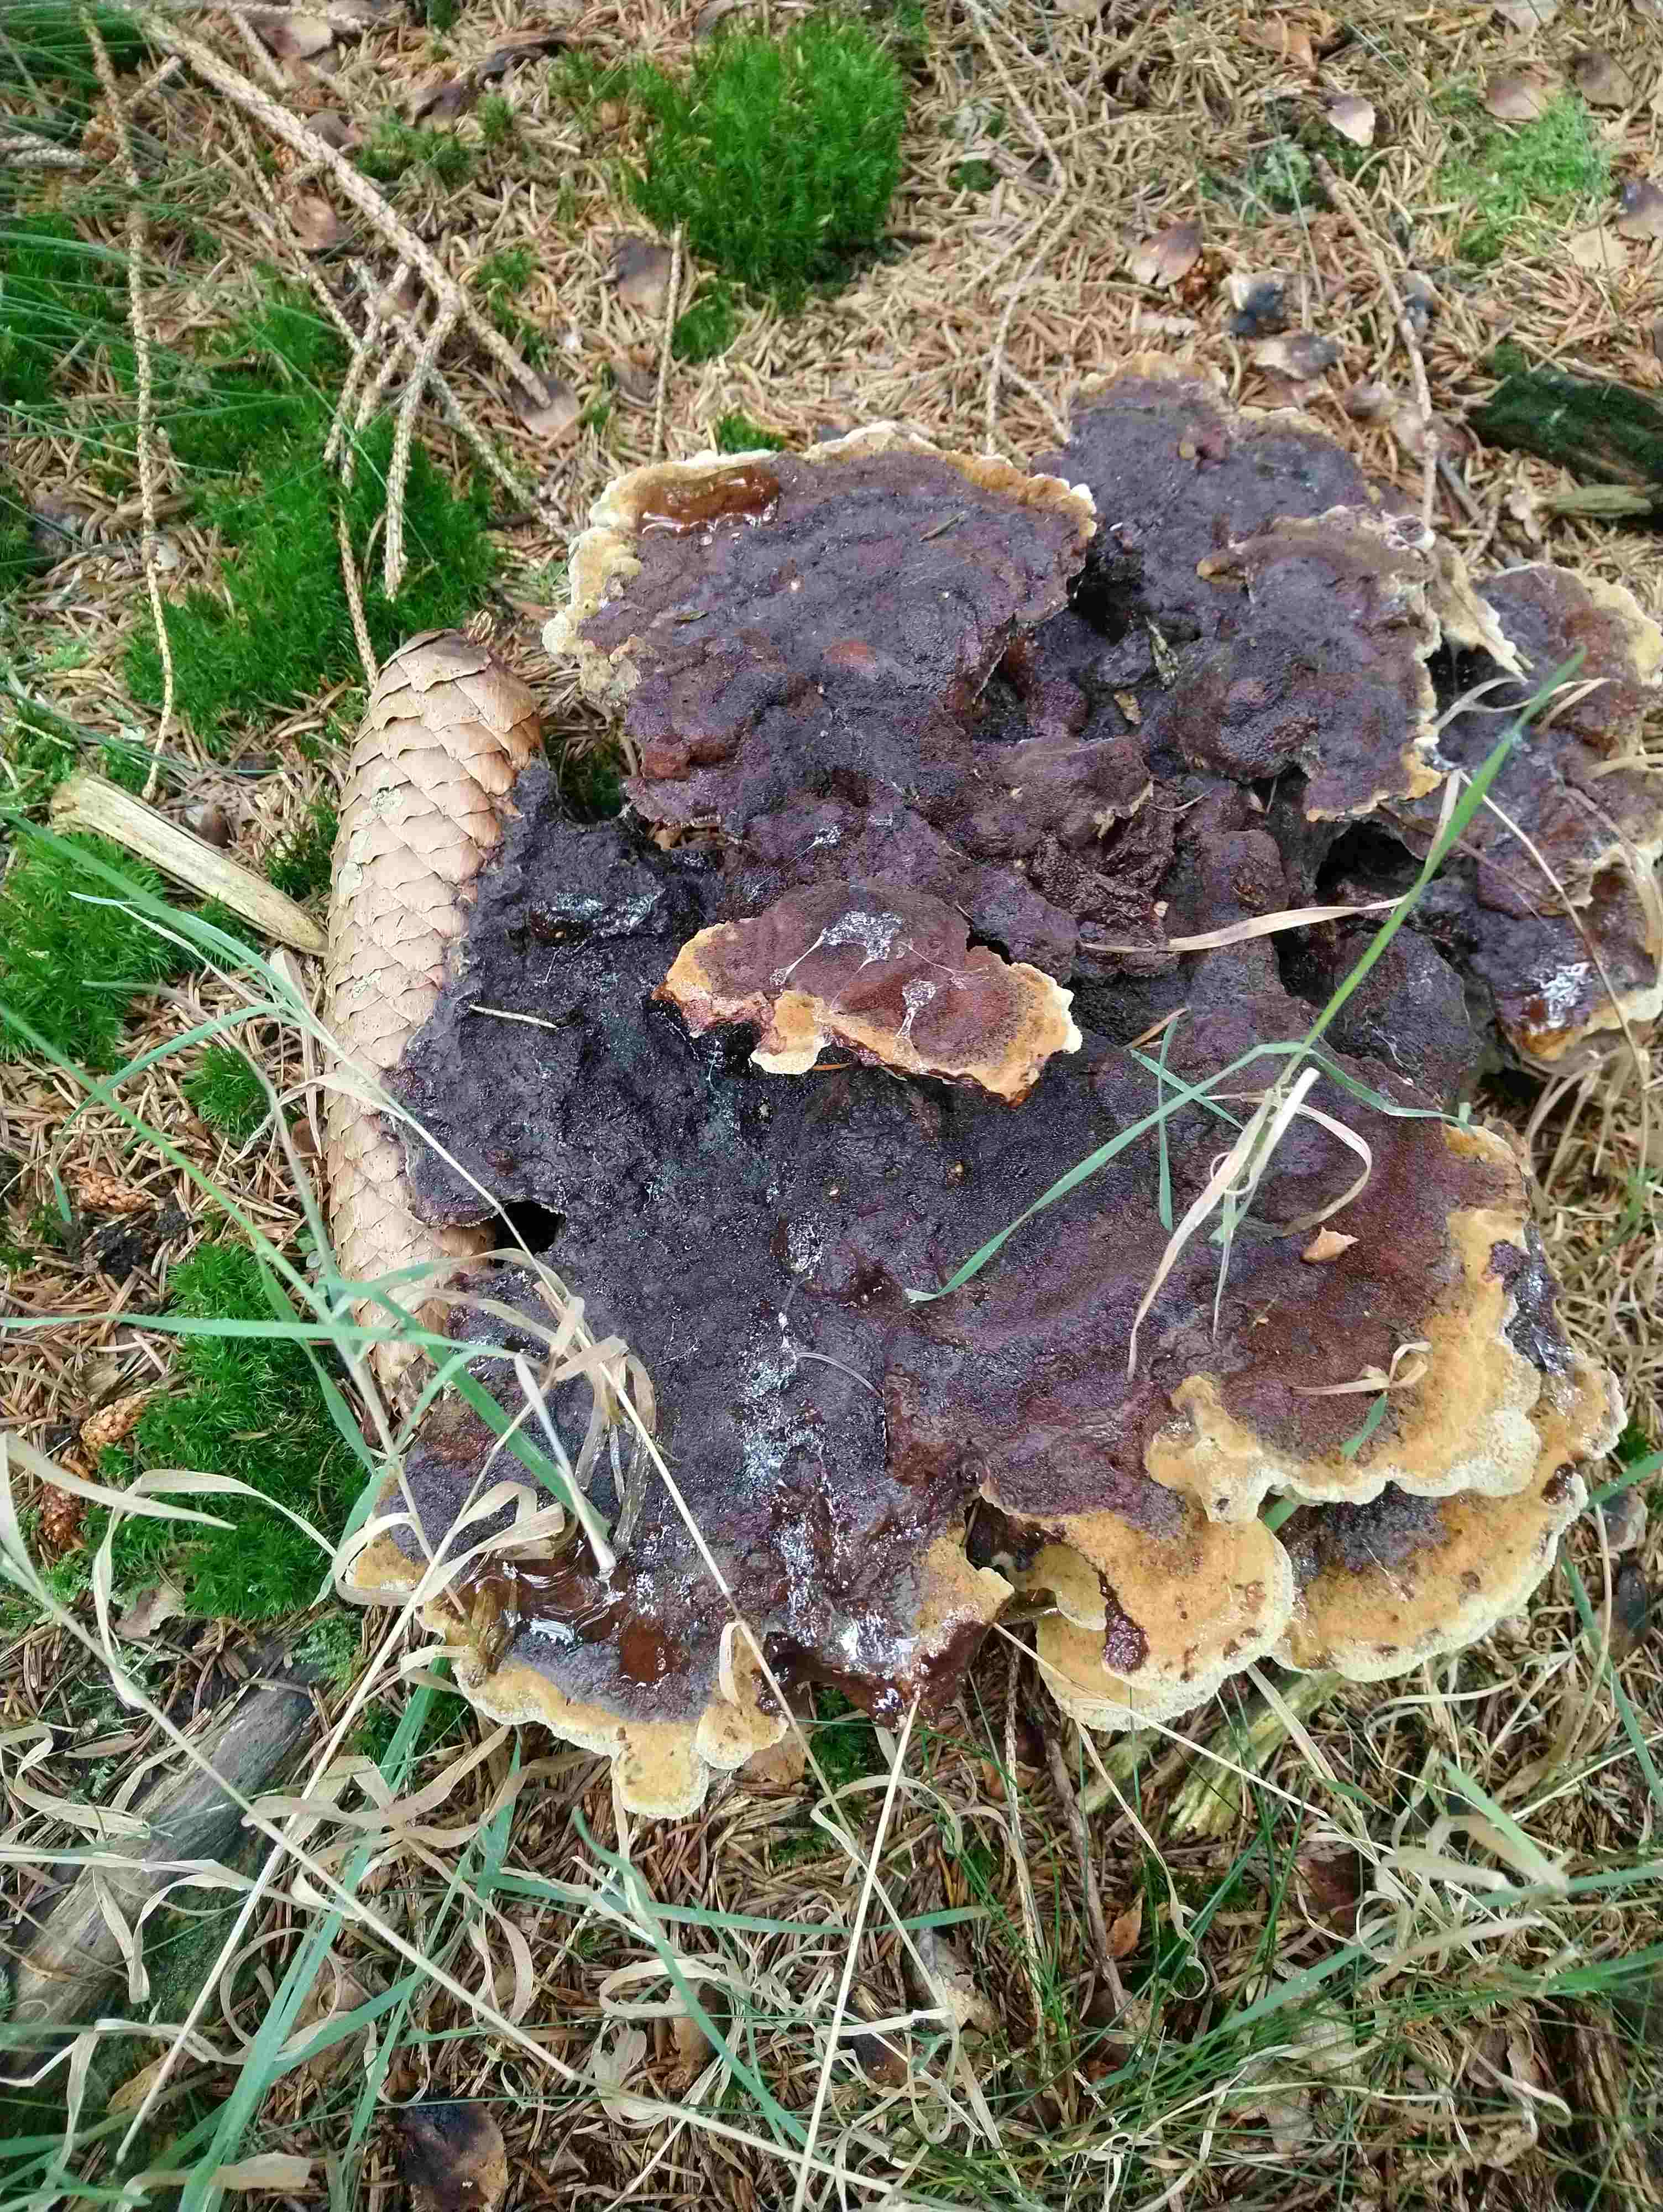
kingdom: Fungi
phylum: Basidiomycota
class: Agaricomycetes
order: Polyporales
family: Laetiporaceae
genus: Phaeolus
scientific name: Phaeolus schweinitzii
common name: brunporesvamp
